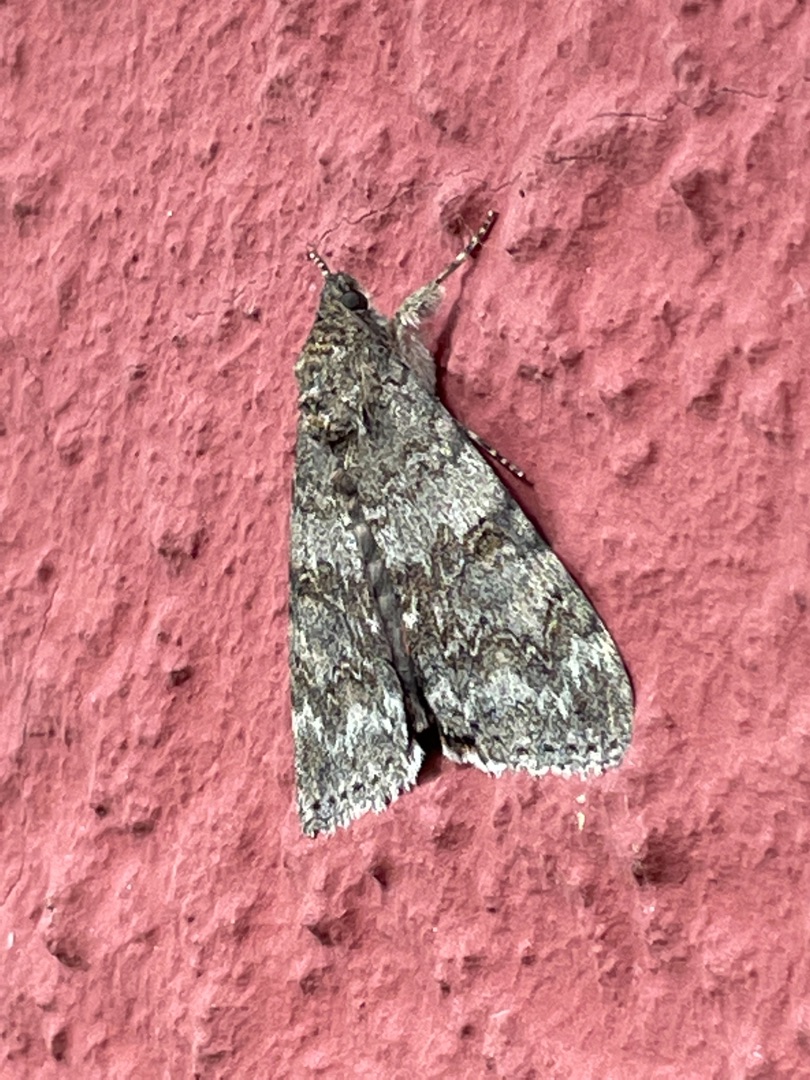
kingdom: Animalia
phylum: Arthropoda
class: Insecta
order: Lepidoptera
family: Erebidae
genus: Catocala
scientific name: Catocala nupta
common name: Rødt ordensbånd
